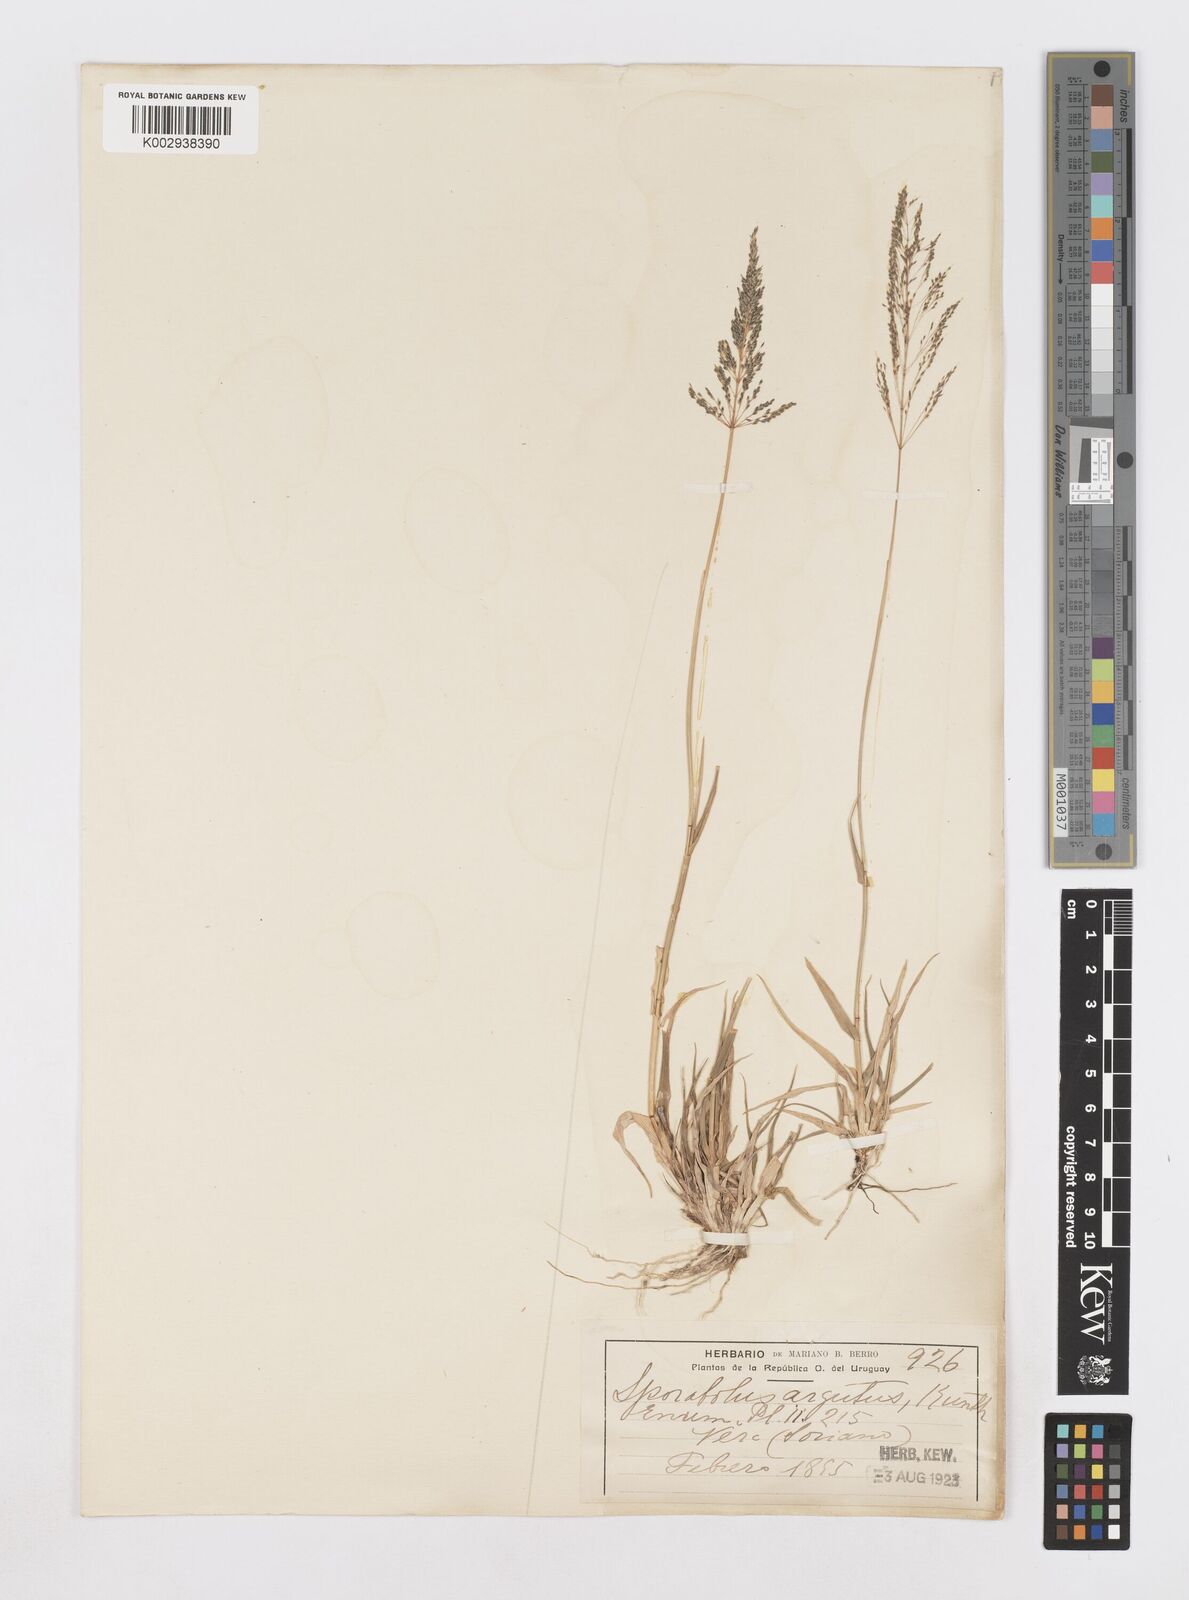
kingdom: Plantae
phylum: Tracheophyta
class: Liliopsida
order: Poales
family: Poaceae
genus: Sporobolus
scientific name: Sporobolus pyramidatus
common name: Whorled dropseed
